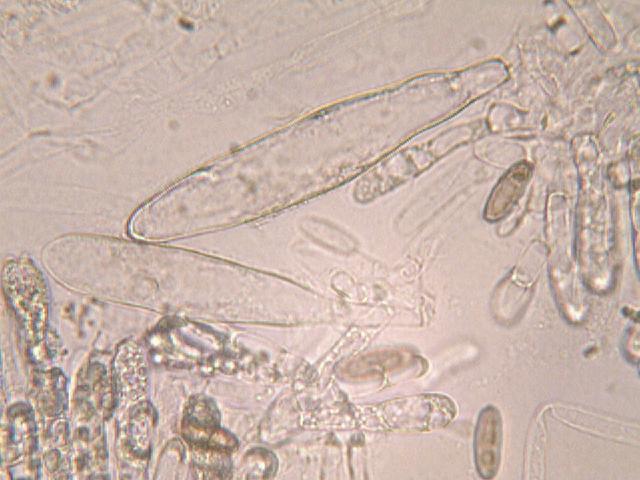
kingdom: Fungi
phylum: Basidiomycota
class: Agaricomycetes
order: Boletales
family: Gomphidiaceae
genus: Gomphidius
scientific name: Gomphidius maculatus
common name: rødmende slimslør
